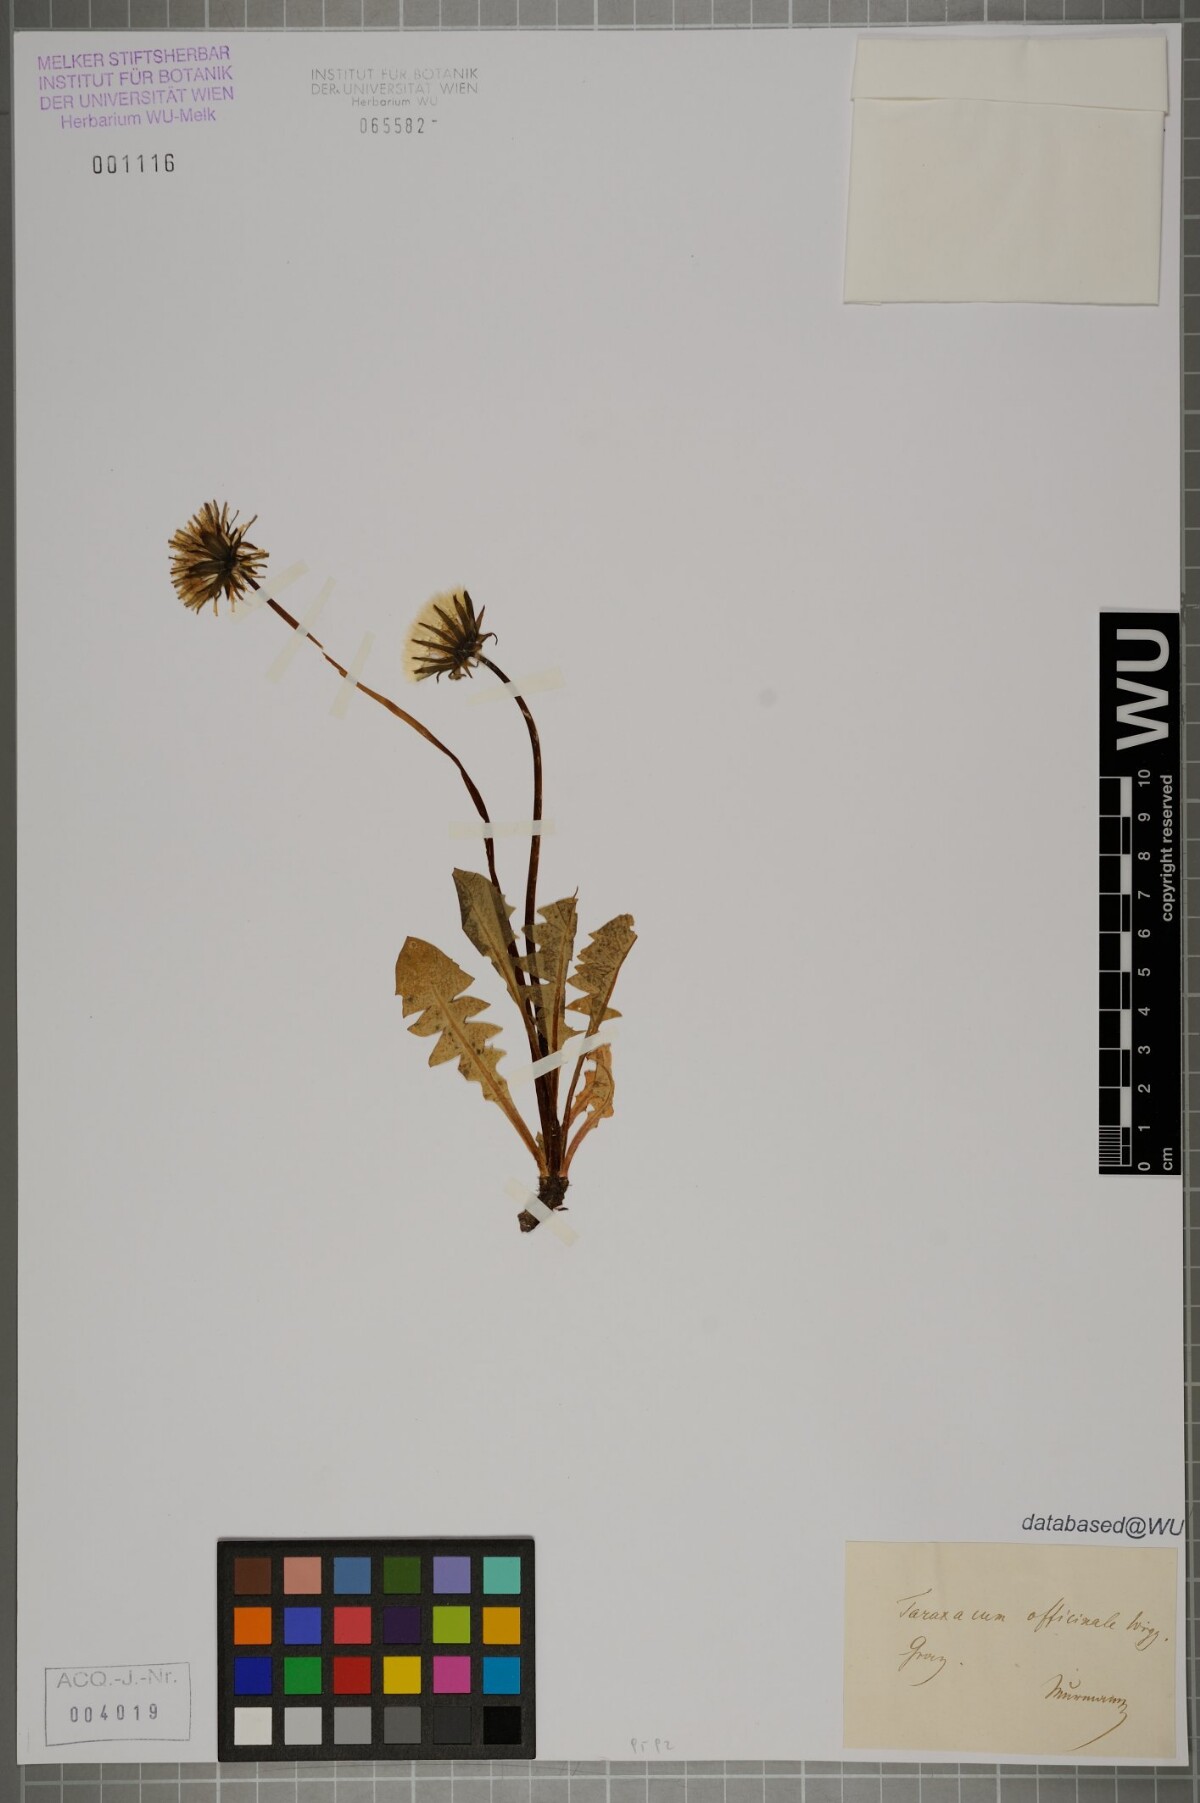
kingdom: Plantae
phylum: Tracheophyta
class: Magnoliopsida
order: Asterales
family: Asteraceae
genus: Taraxacum
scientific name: Taraxacum
